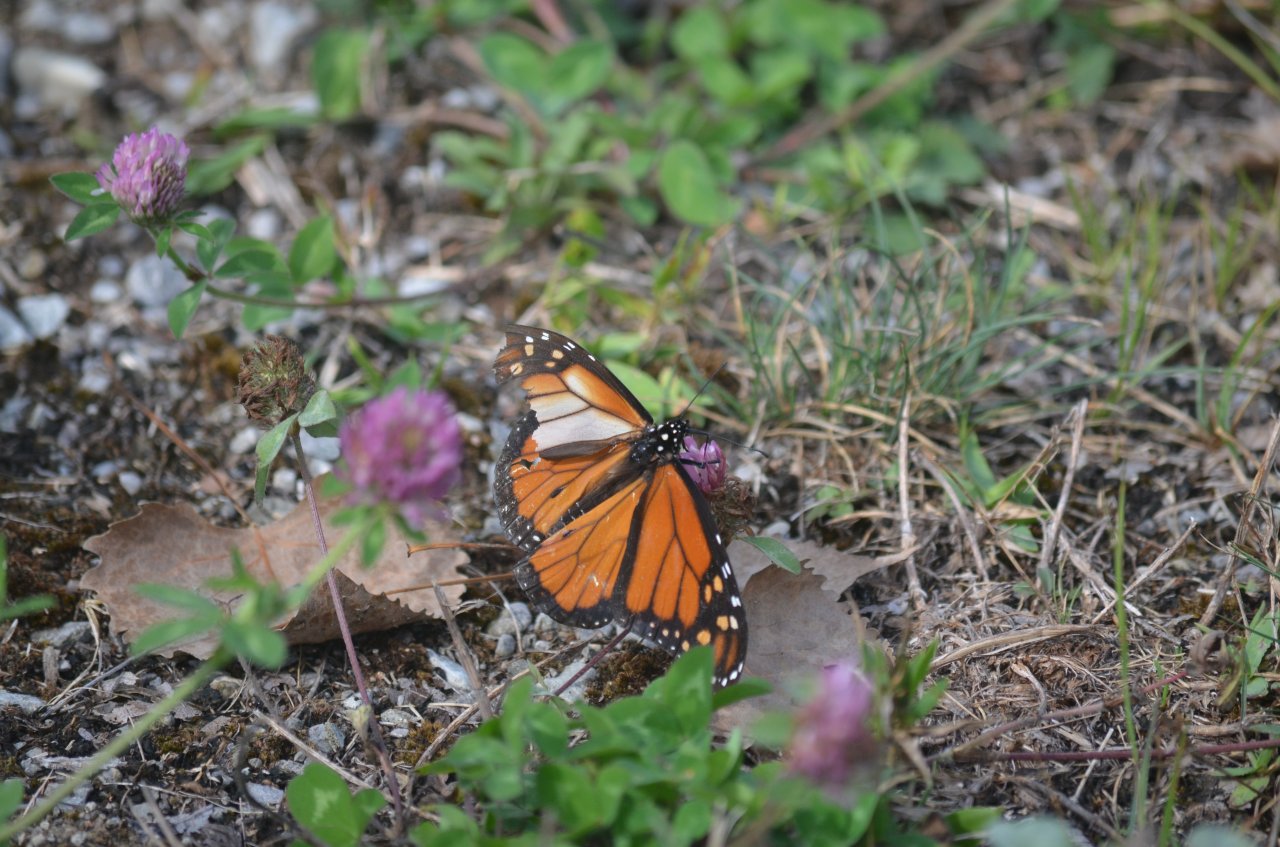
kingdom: Animalia
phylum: Arthropoda
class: Insecta
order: Lepidoptera
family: Nymphalidae
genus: Danaus
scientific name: Danaus plexippus
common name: Monarch
